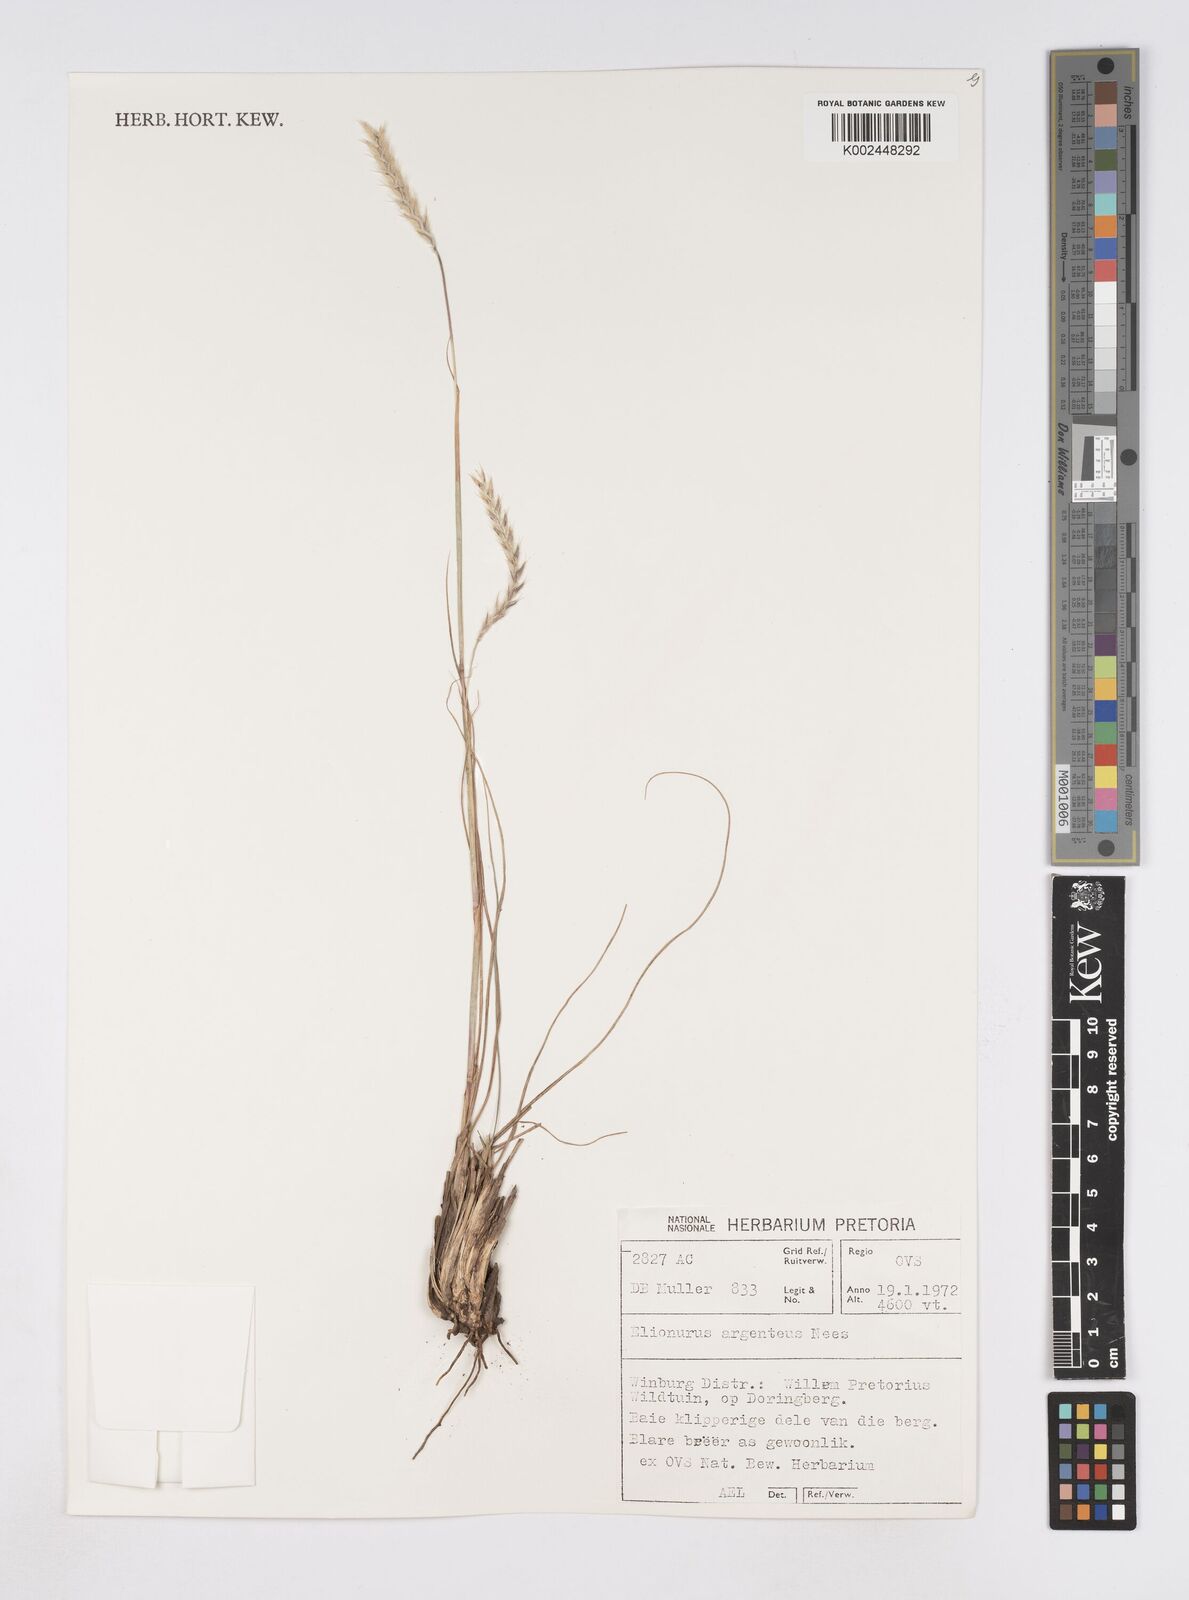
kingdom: Plantae
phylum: Tracheophyta
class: Liliopsida
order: Poales
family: Poaceae
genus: Elionurus
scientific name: Elionurus muticus
